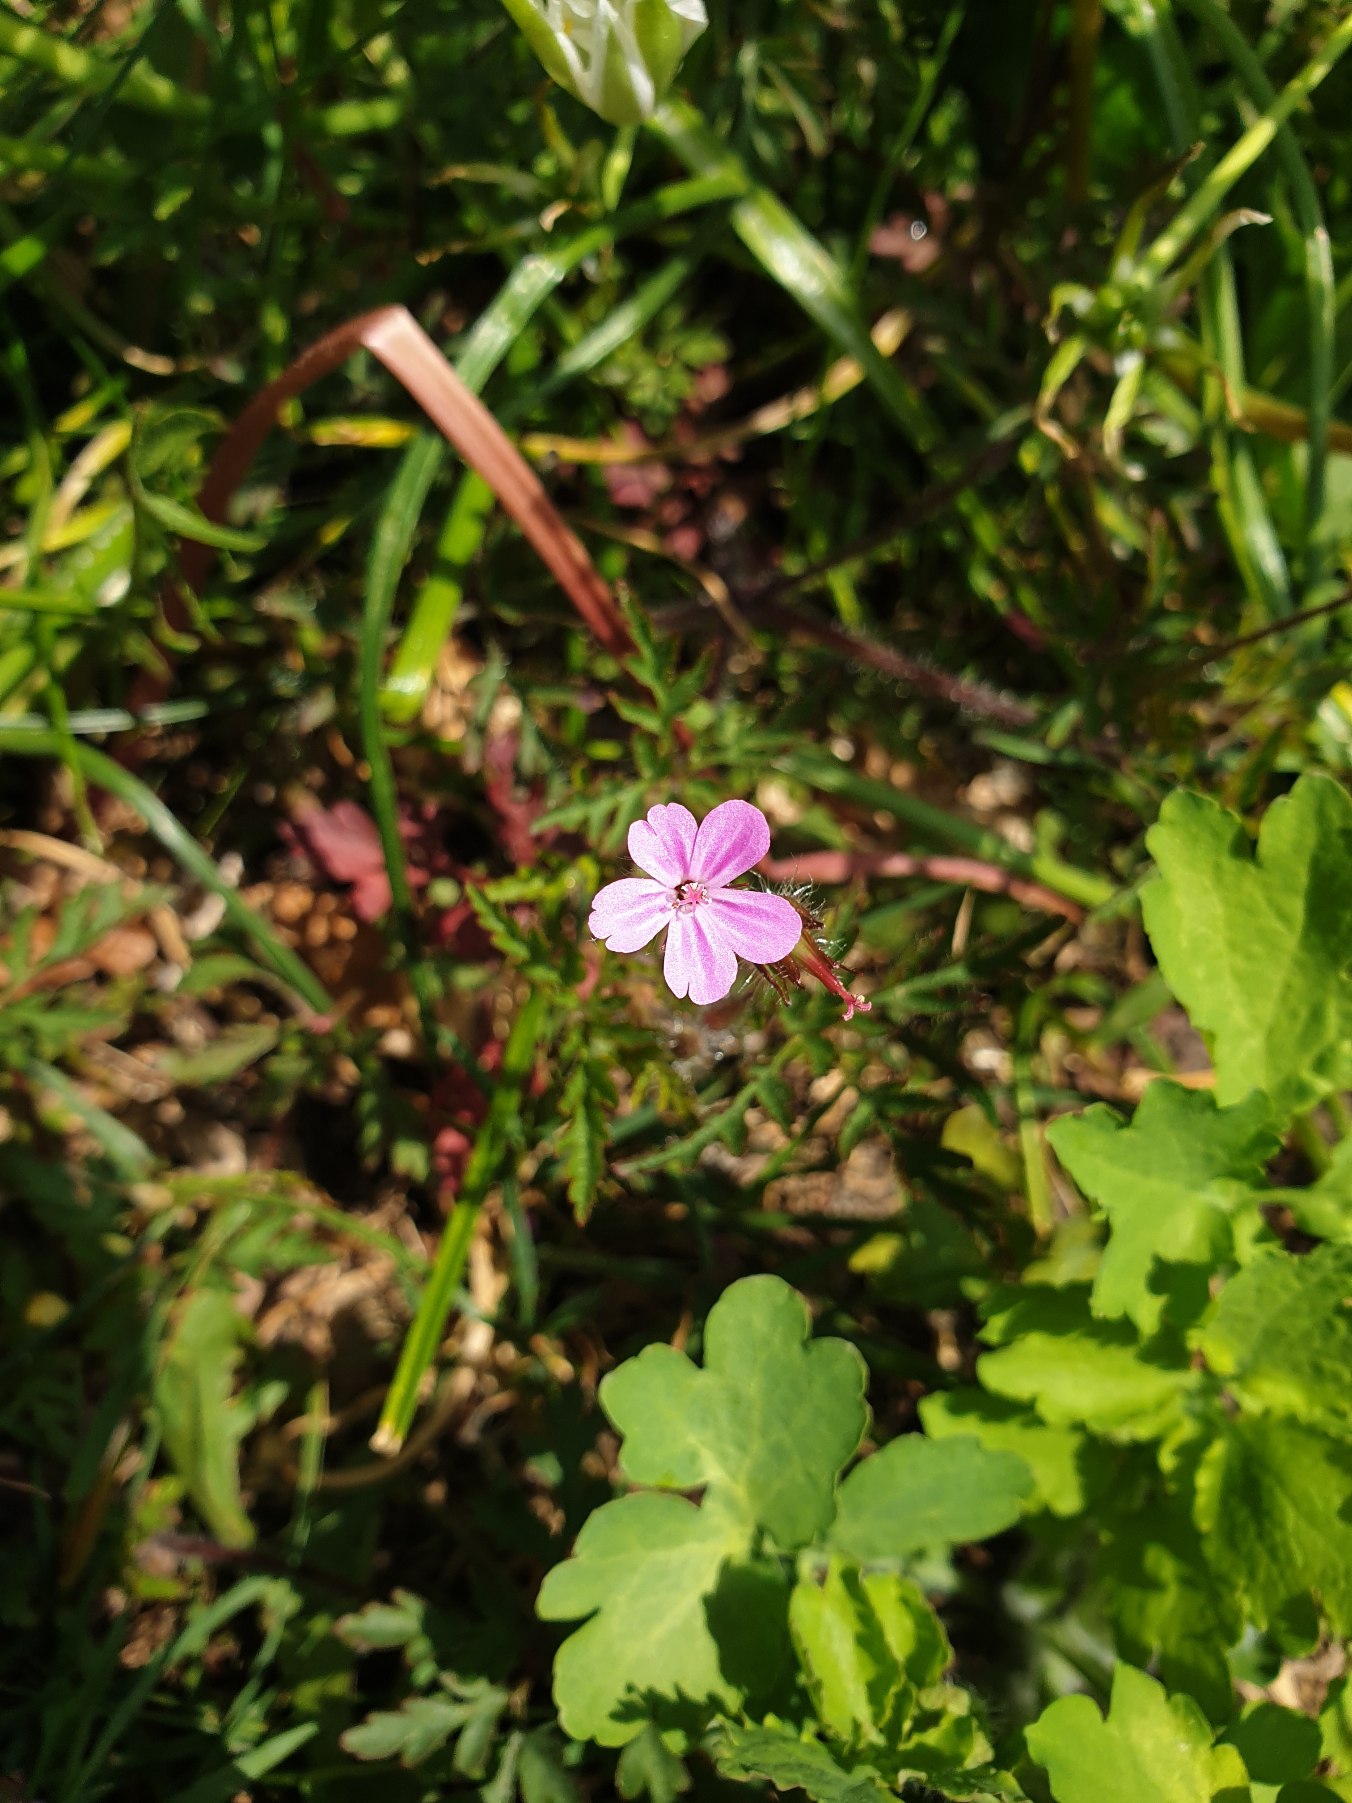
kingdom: Plantae
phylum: Tracheophyta
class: Magnoliopsida
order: Geraniales
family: Geraniaceae
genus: Geranium
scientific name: Geranium robertianum
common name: Stinkende storkenæb
